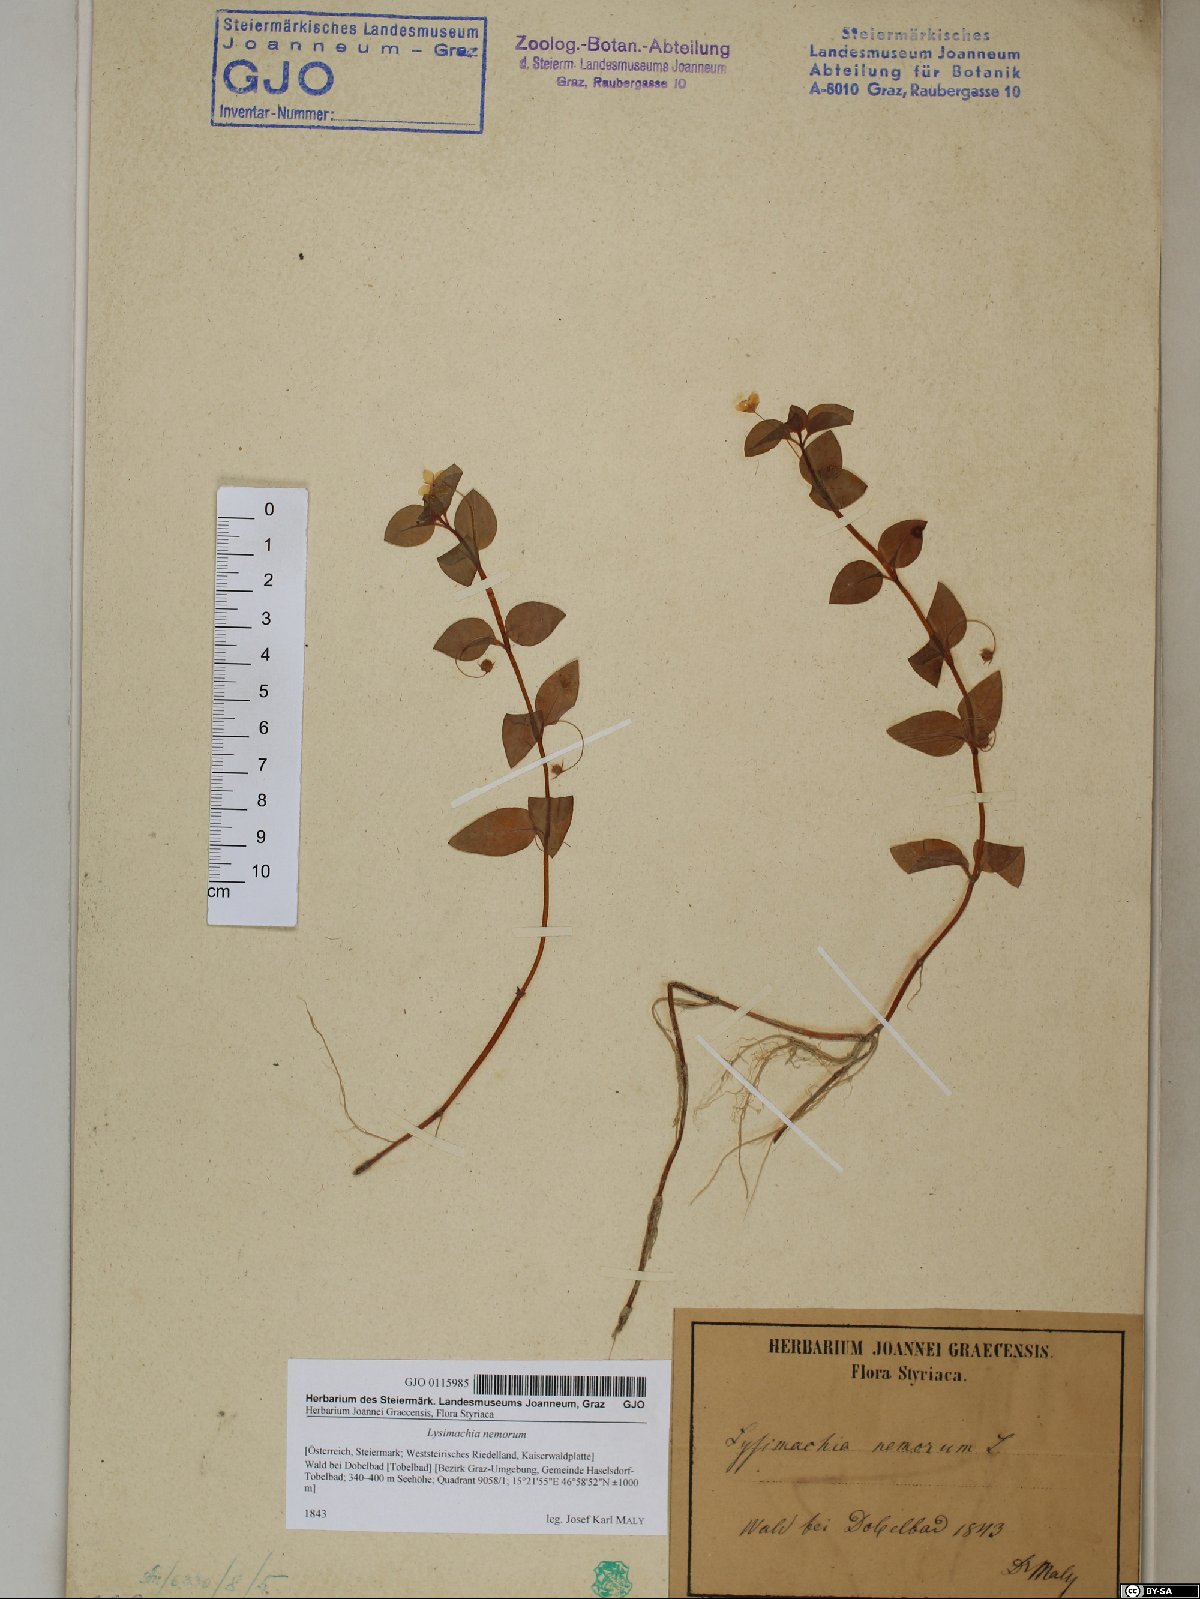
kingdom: Plantae
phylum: Tracheophyta
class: Magnoliopsida
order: Ericales
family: Primulaceae
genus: Lysimachia
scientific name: Lysimachia nemorum
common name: Yellow pimpernel
